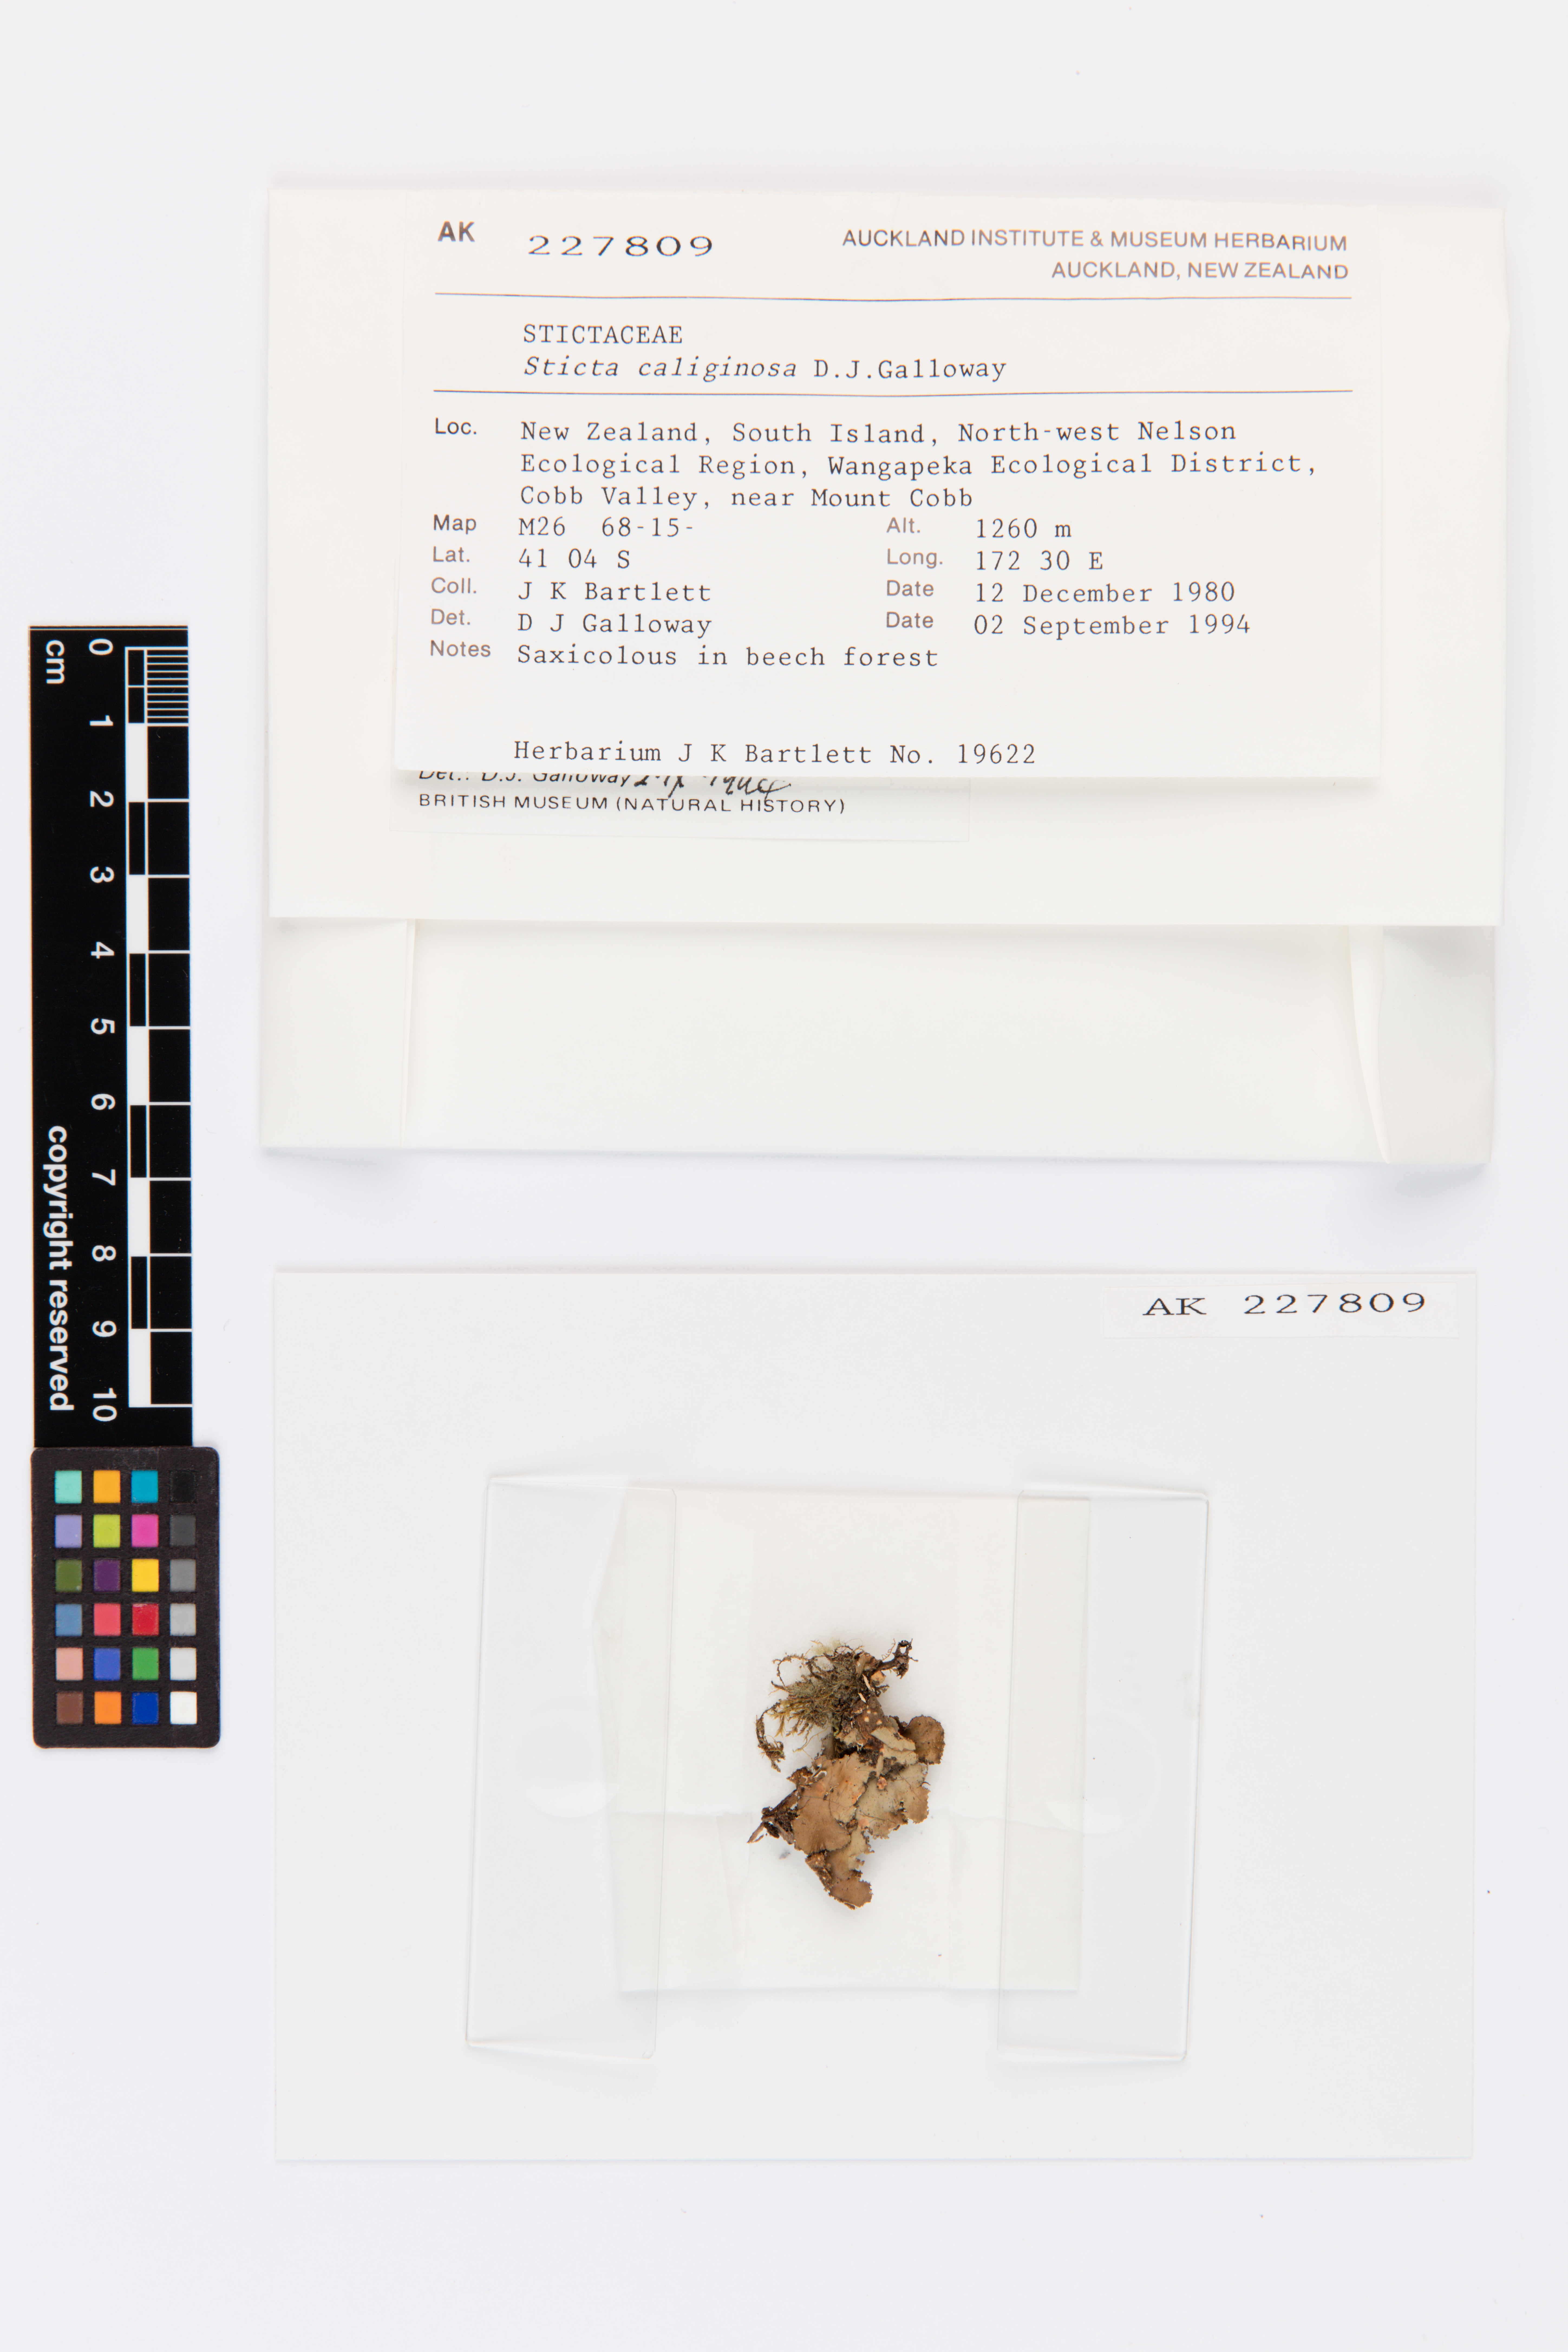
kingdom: Fungi
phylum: Ascomycota
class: Lecanoromycetes
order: Peltigerales
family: Lobariaceae
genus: Sticta
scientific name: Sticta caliginosa
